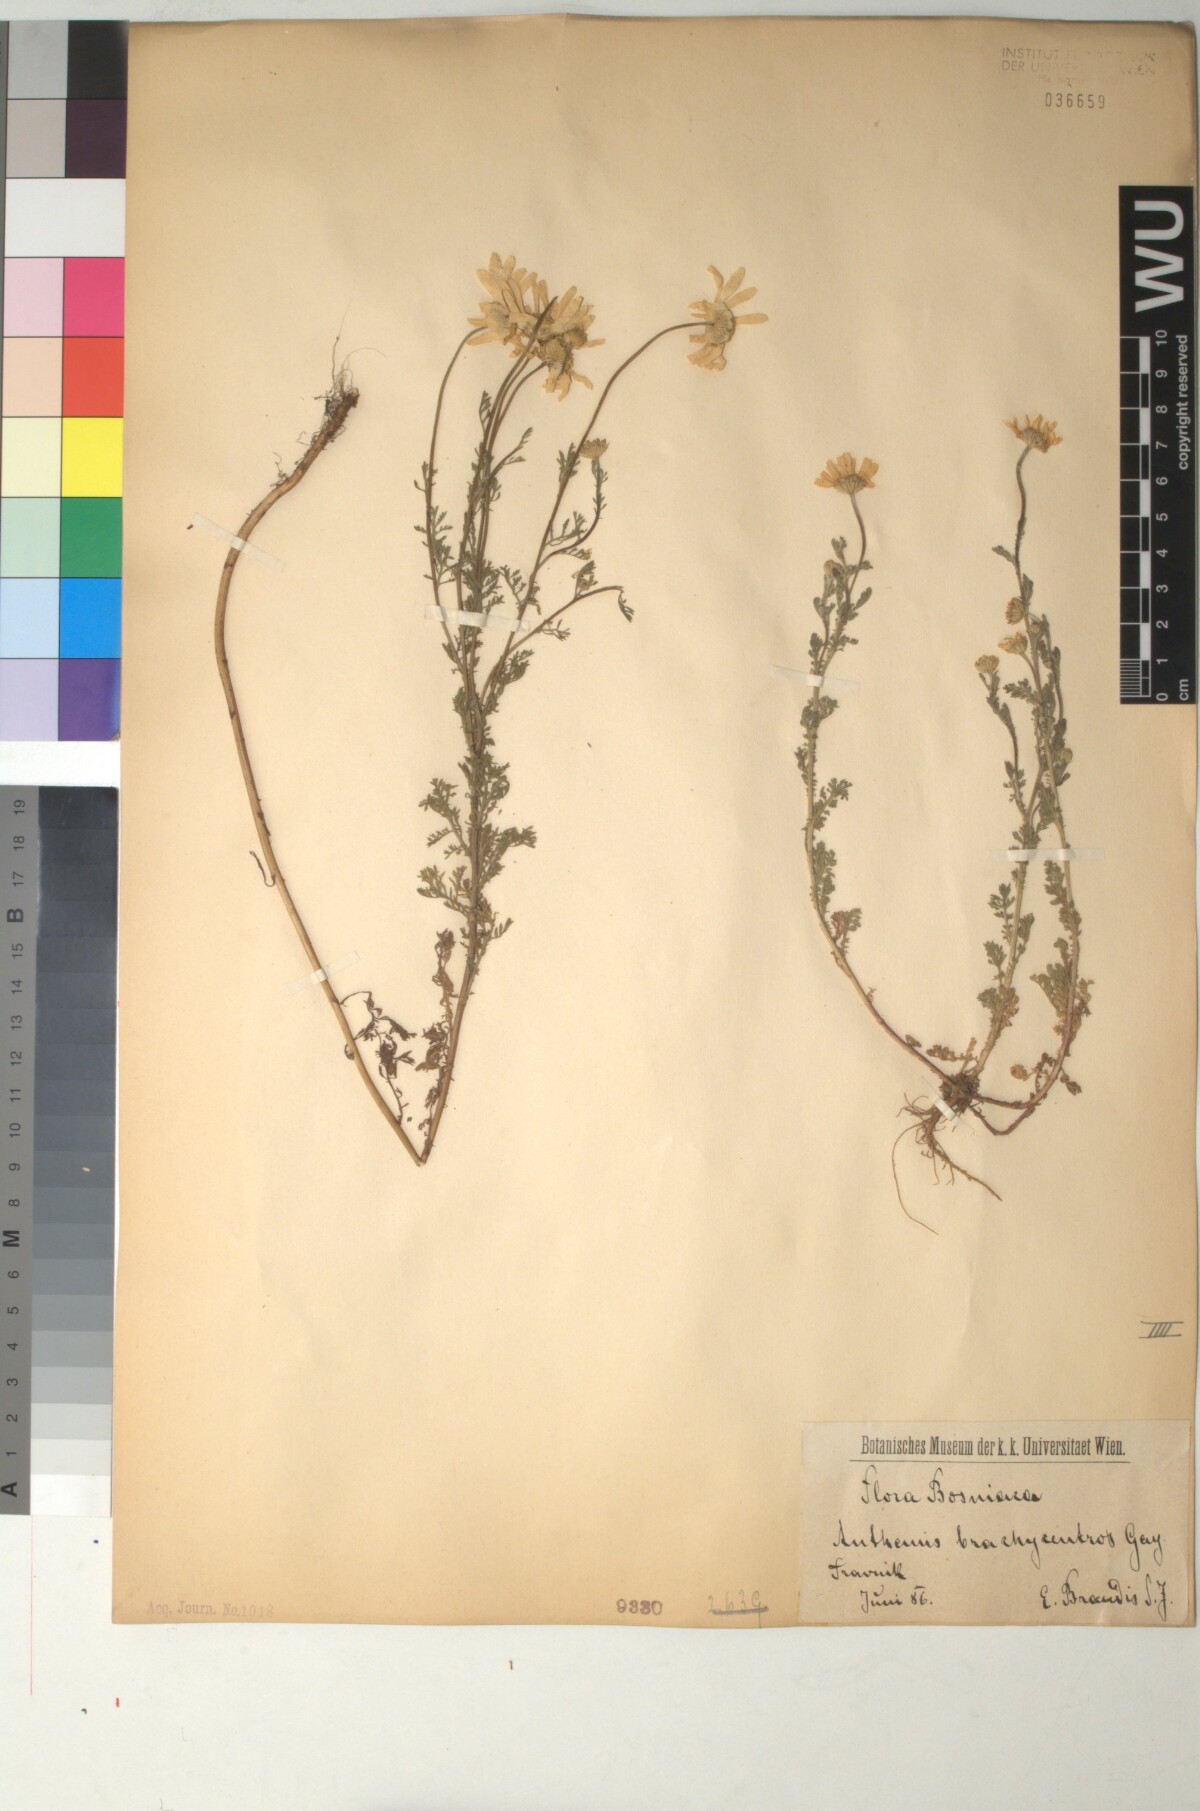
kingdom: Plantae
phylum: Tracheophyta
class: Magnoliopsida
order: Asterales
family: Asteraceae
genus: Cota
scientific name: Cota segetalis
